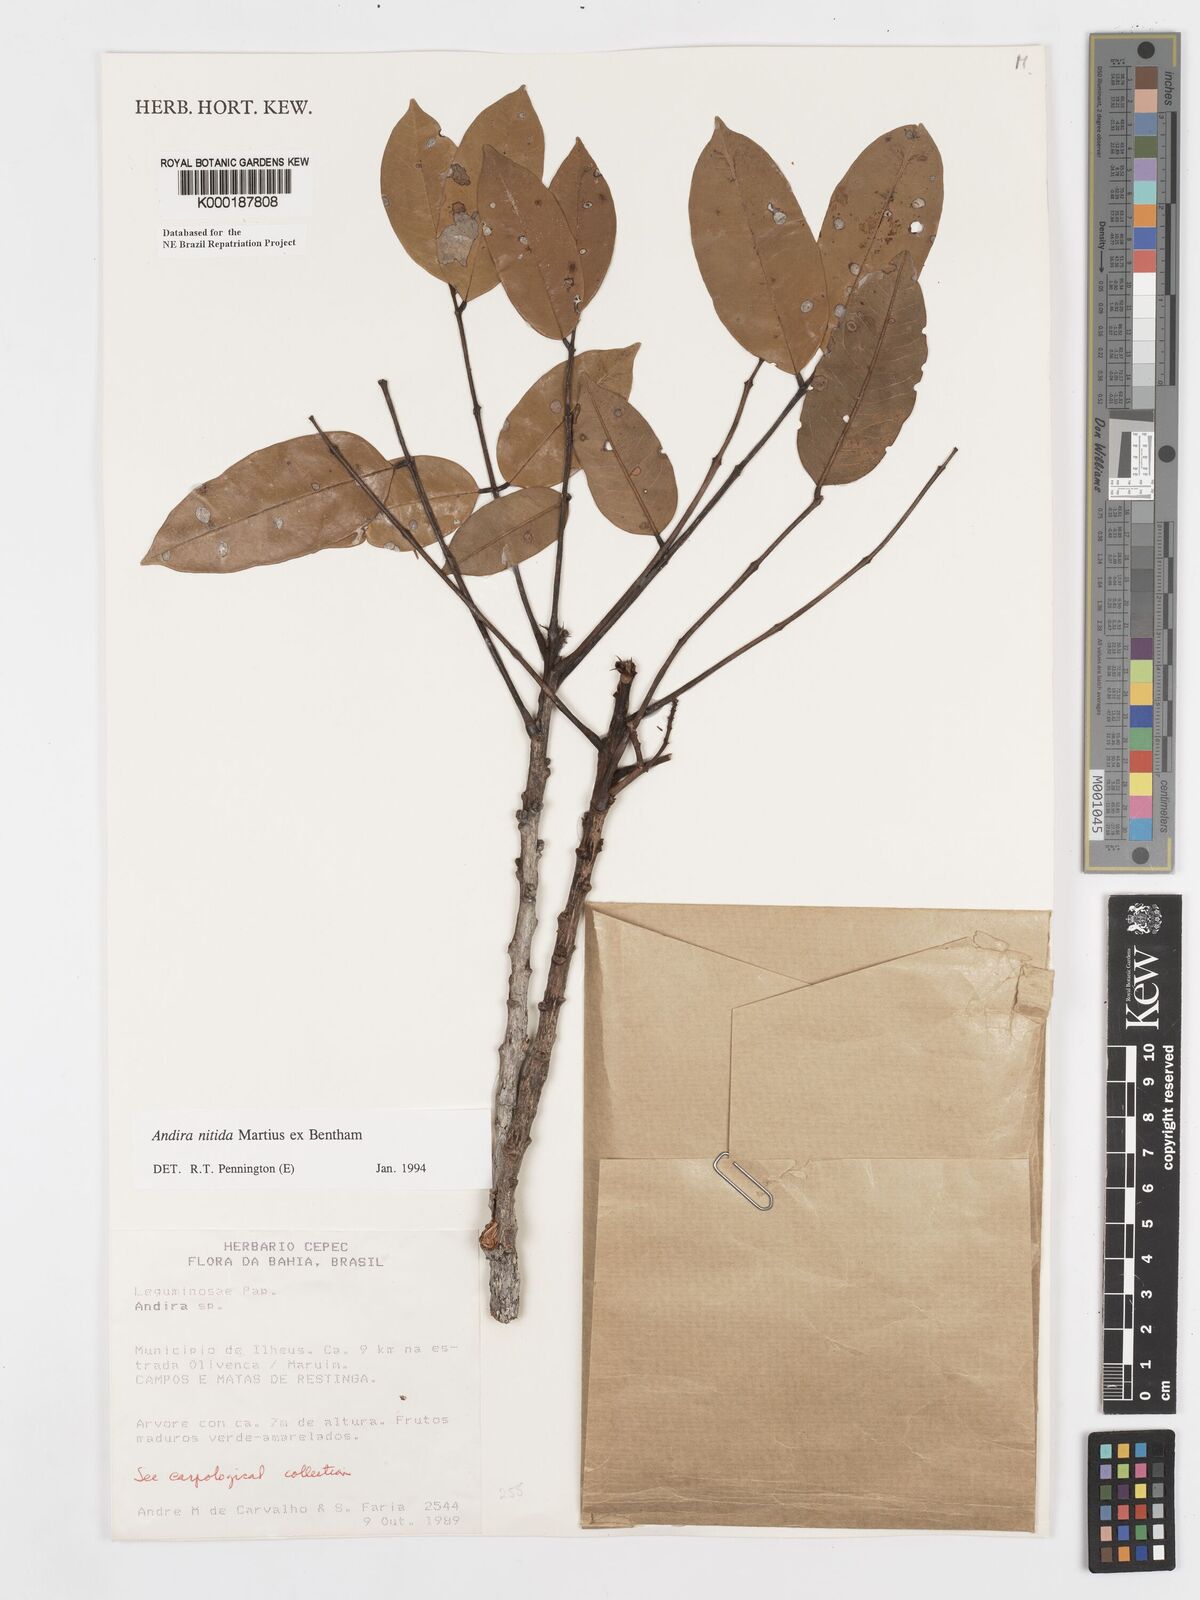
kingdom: Plantae
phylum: Tracheophyta
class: Magnoliopsida
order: Fabales
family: Fabaceae
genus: Andira
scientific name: Andira nitida
